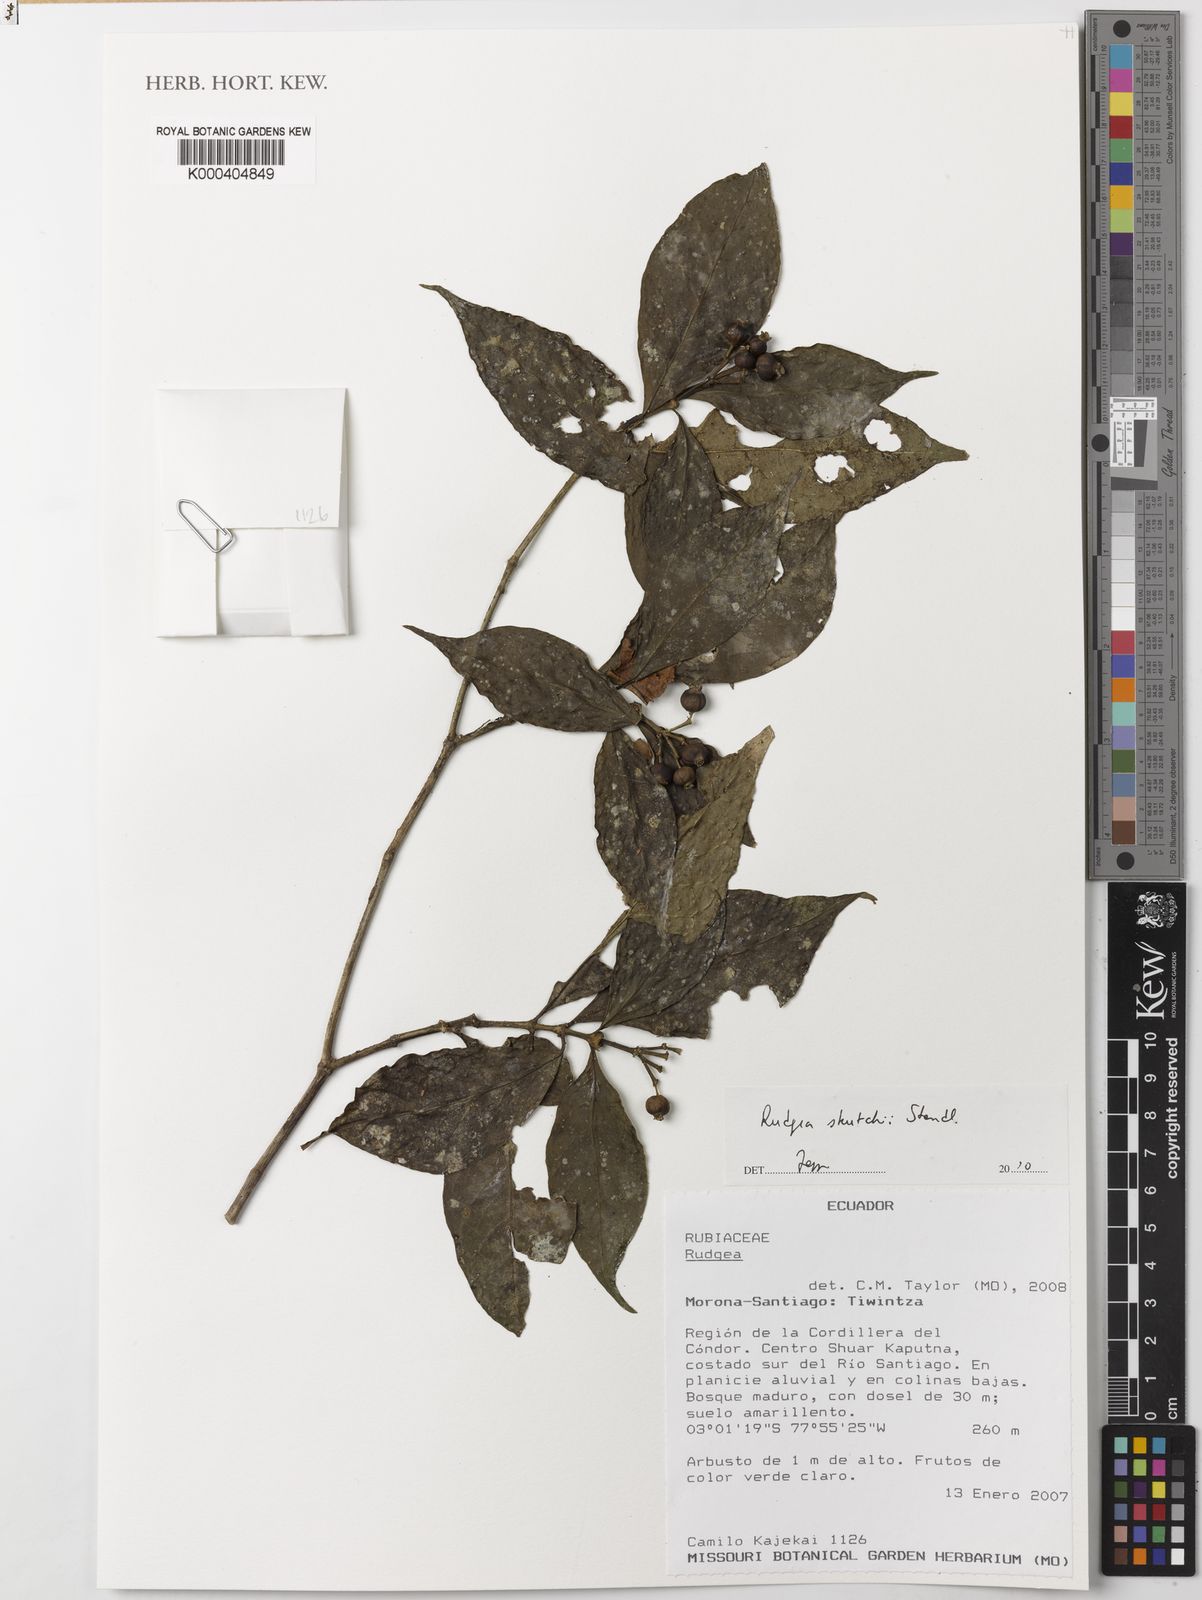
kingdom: Plantae
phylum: Tracheophyta
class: Magnoliopsida
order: Gentianales
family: Rubiaceae
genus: Rudgea
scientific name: Rudgea skutchii
